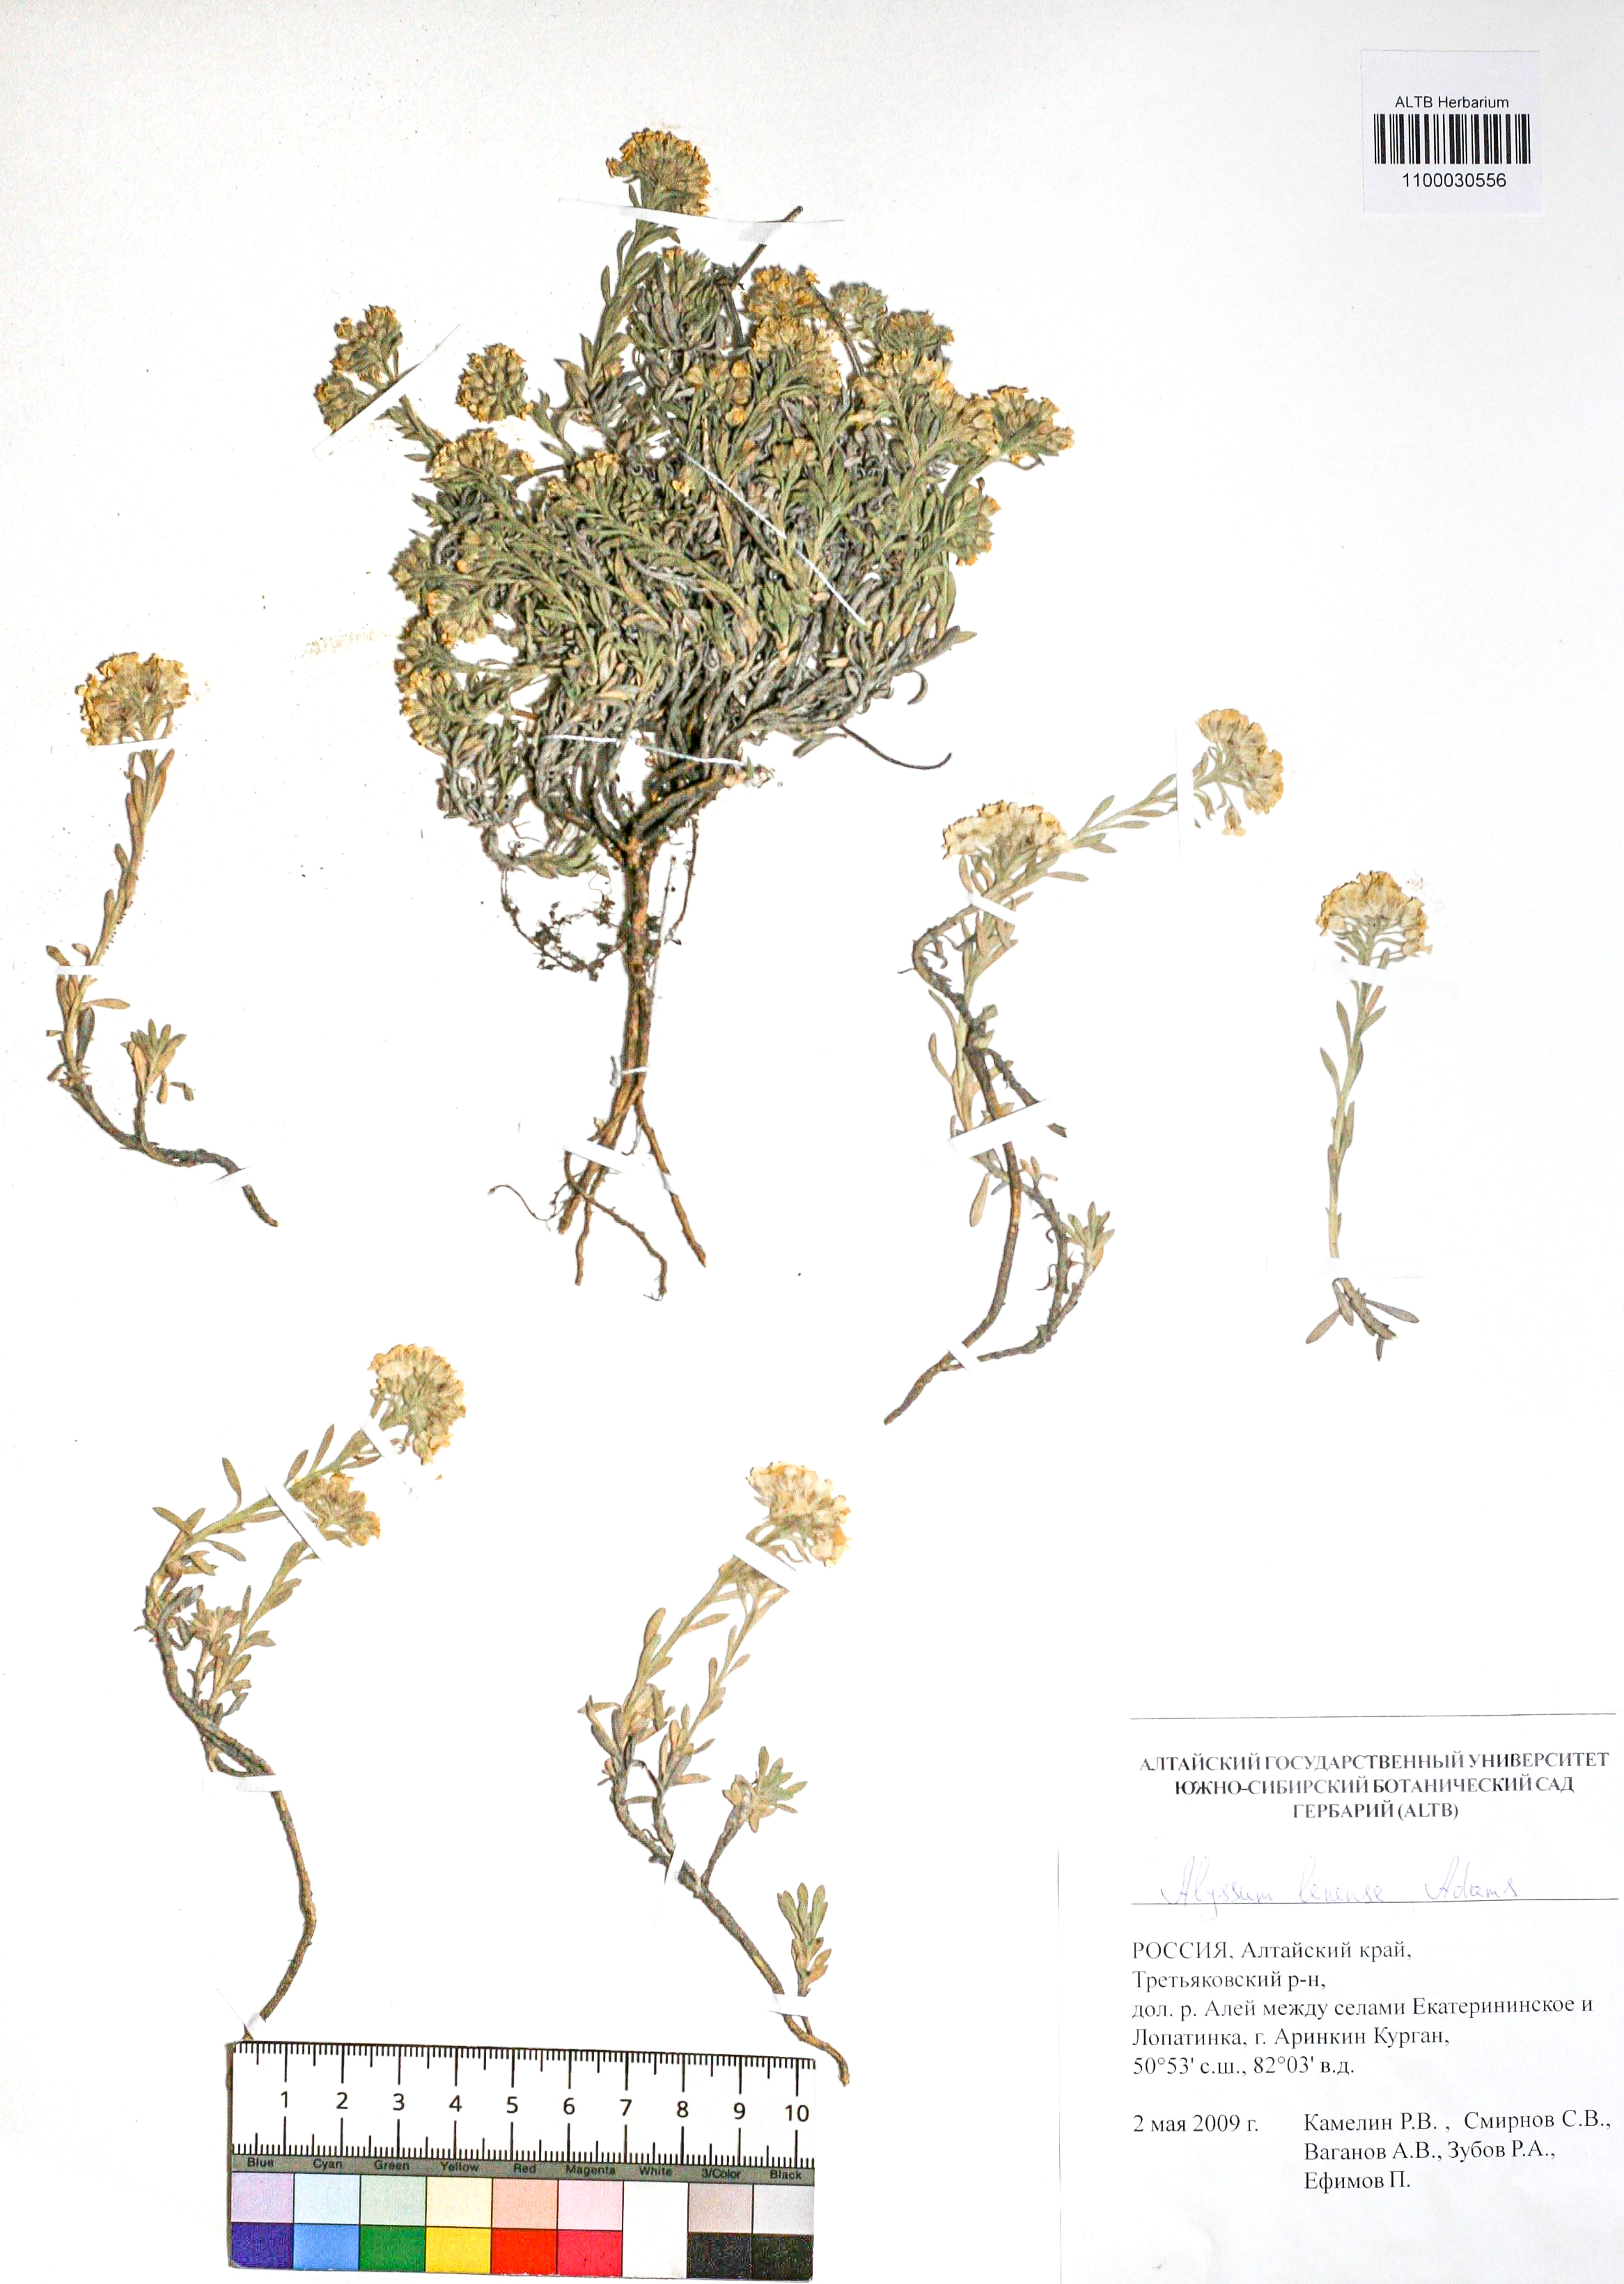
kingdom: Plantae
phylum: Tracheophyta
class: Magnoliopsida
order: Brassicales
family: Brassicaceae
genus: Alyssum
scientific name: Alyssum lenense
